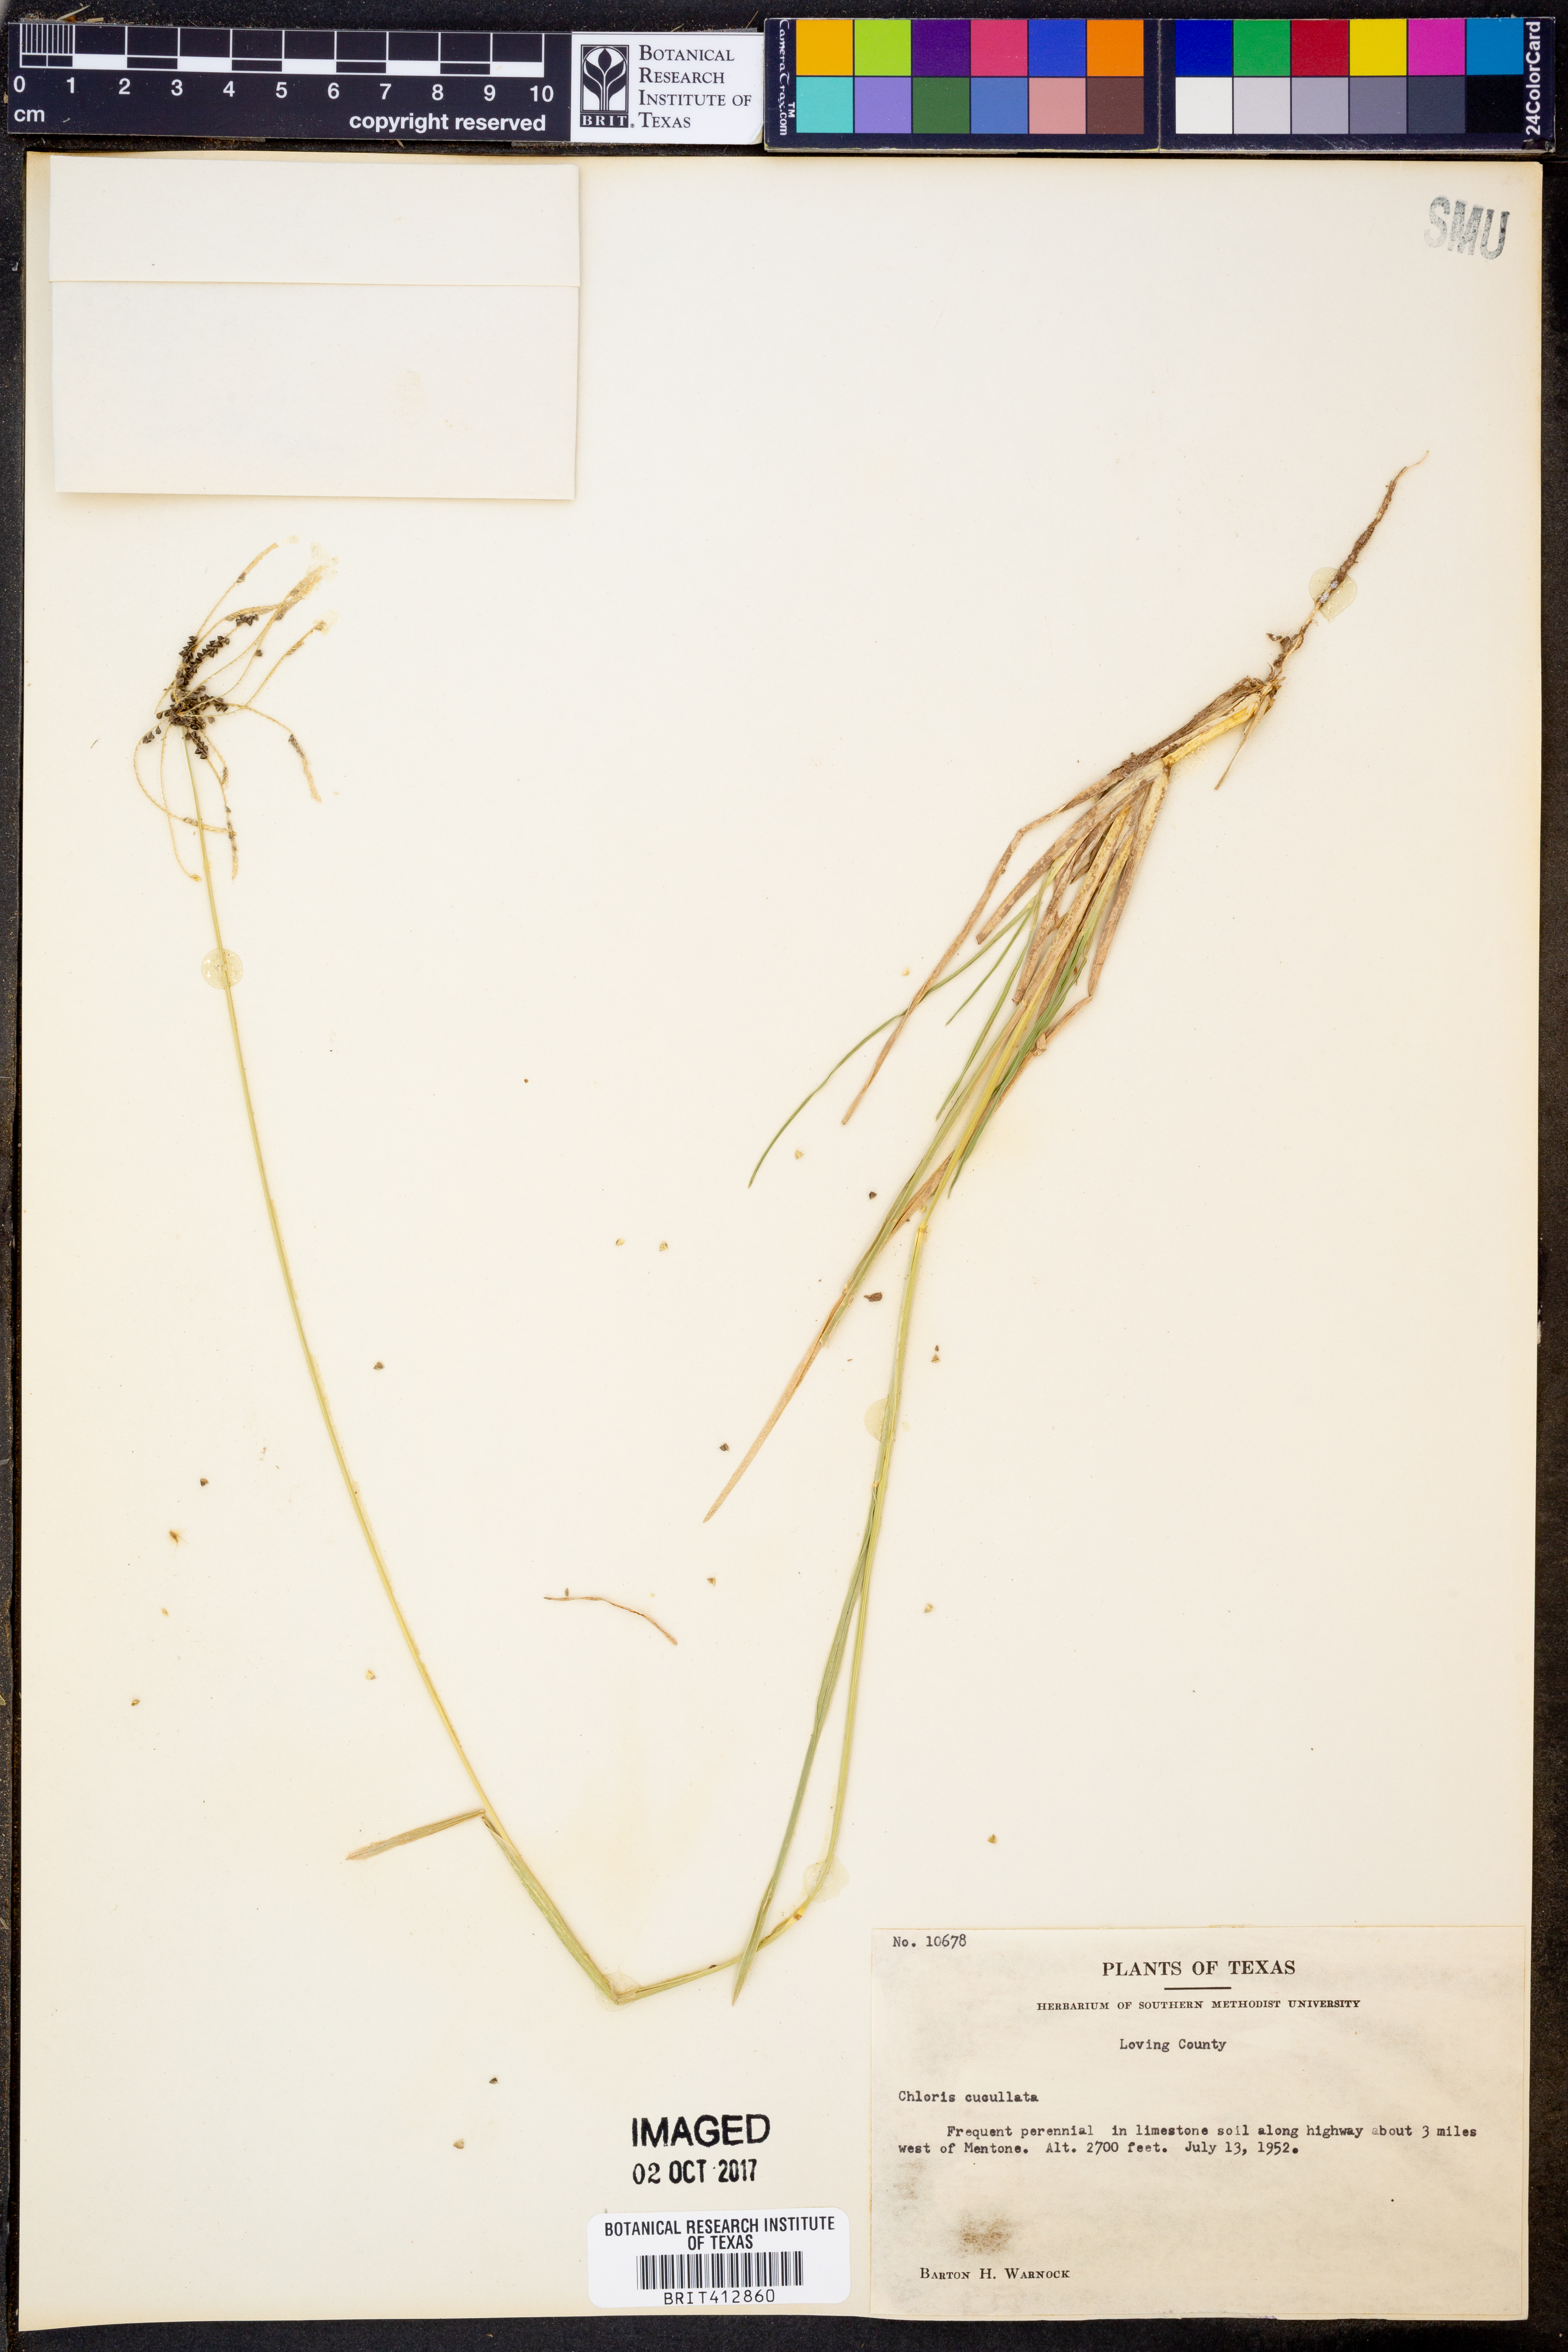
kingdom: Plantae
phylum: Tracheophyta
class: Liliopsida
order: Poales
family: Poaceae
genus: Chloris
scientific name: Chloris cucullata
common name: Hooded windmill grass
